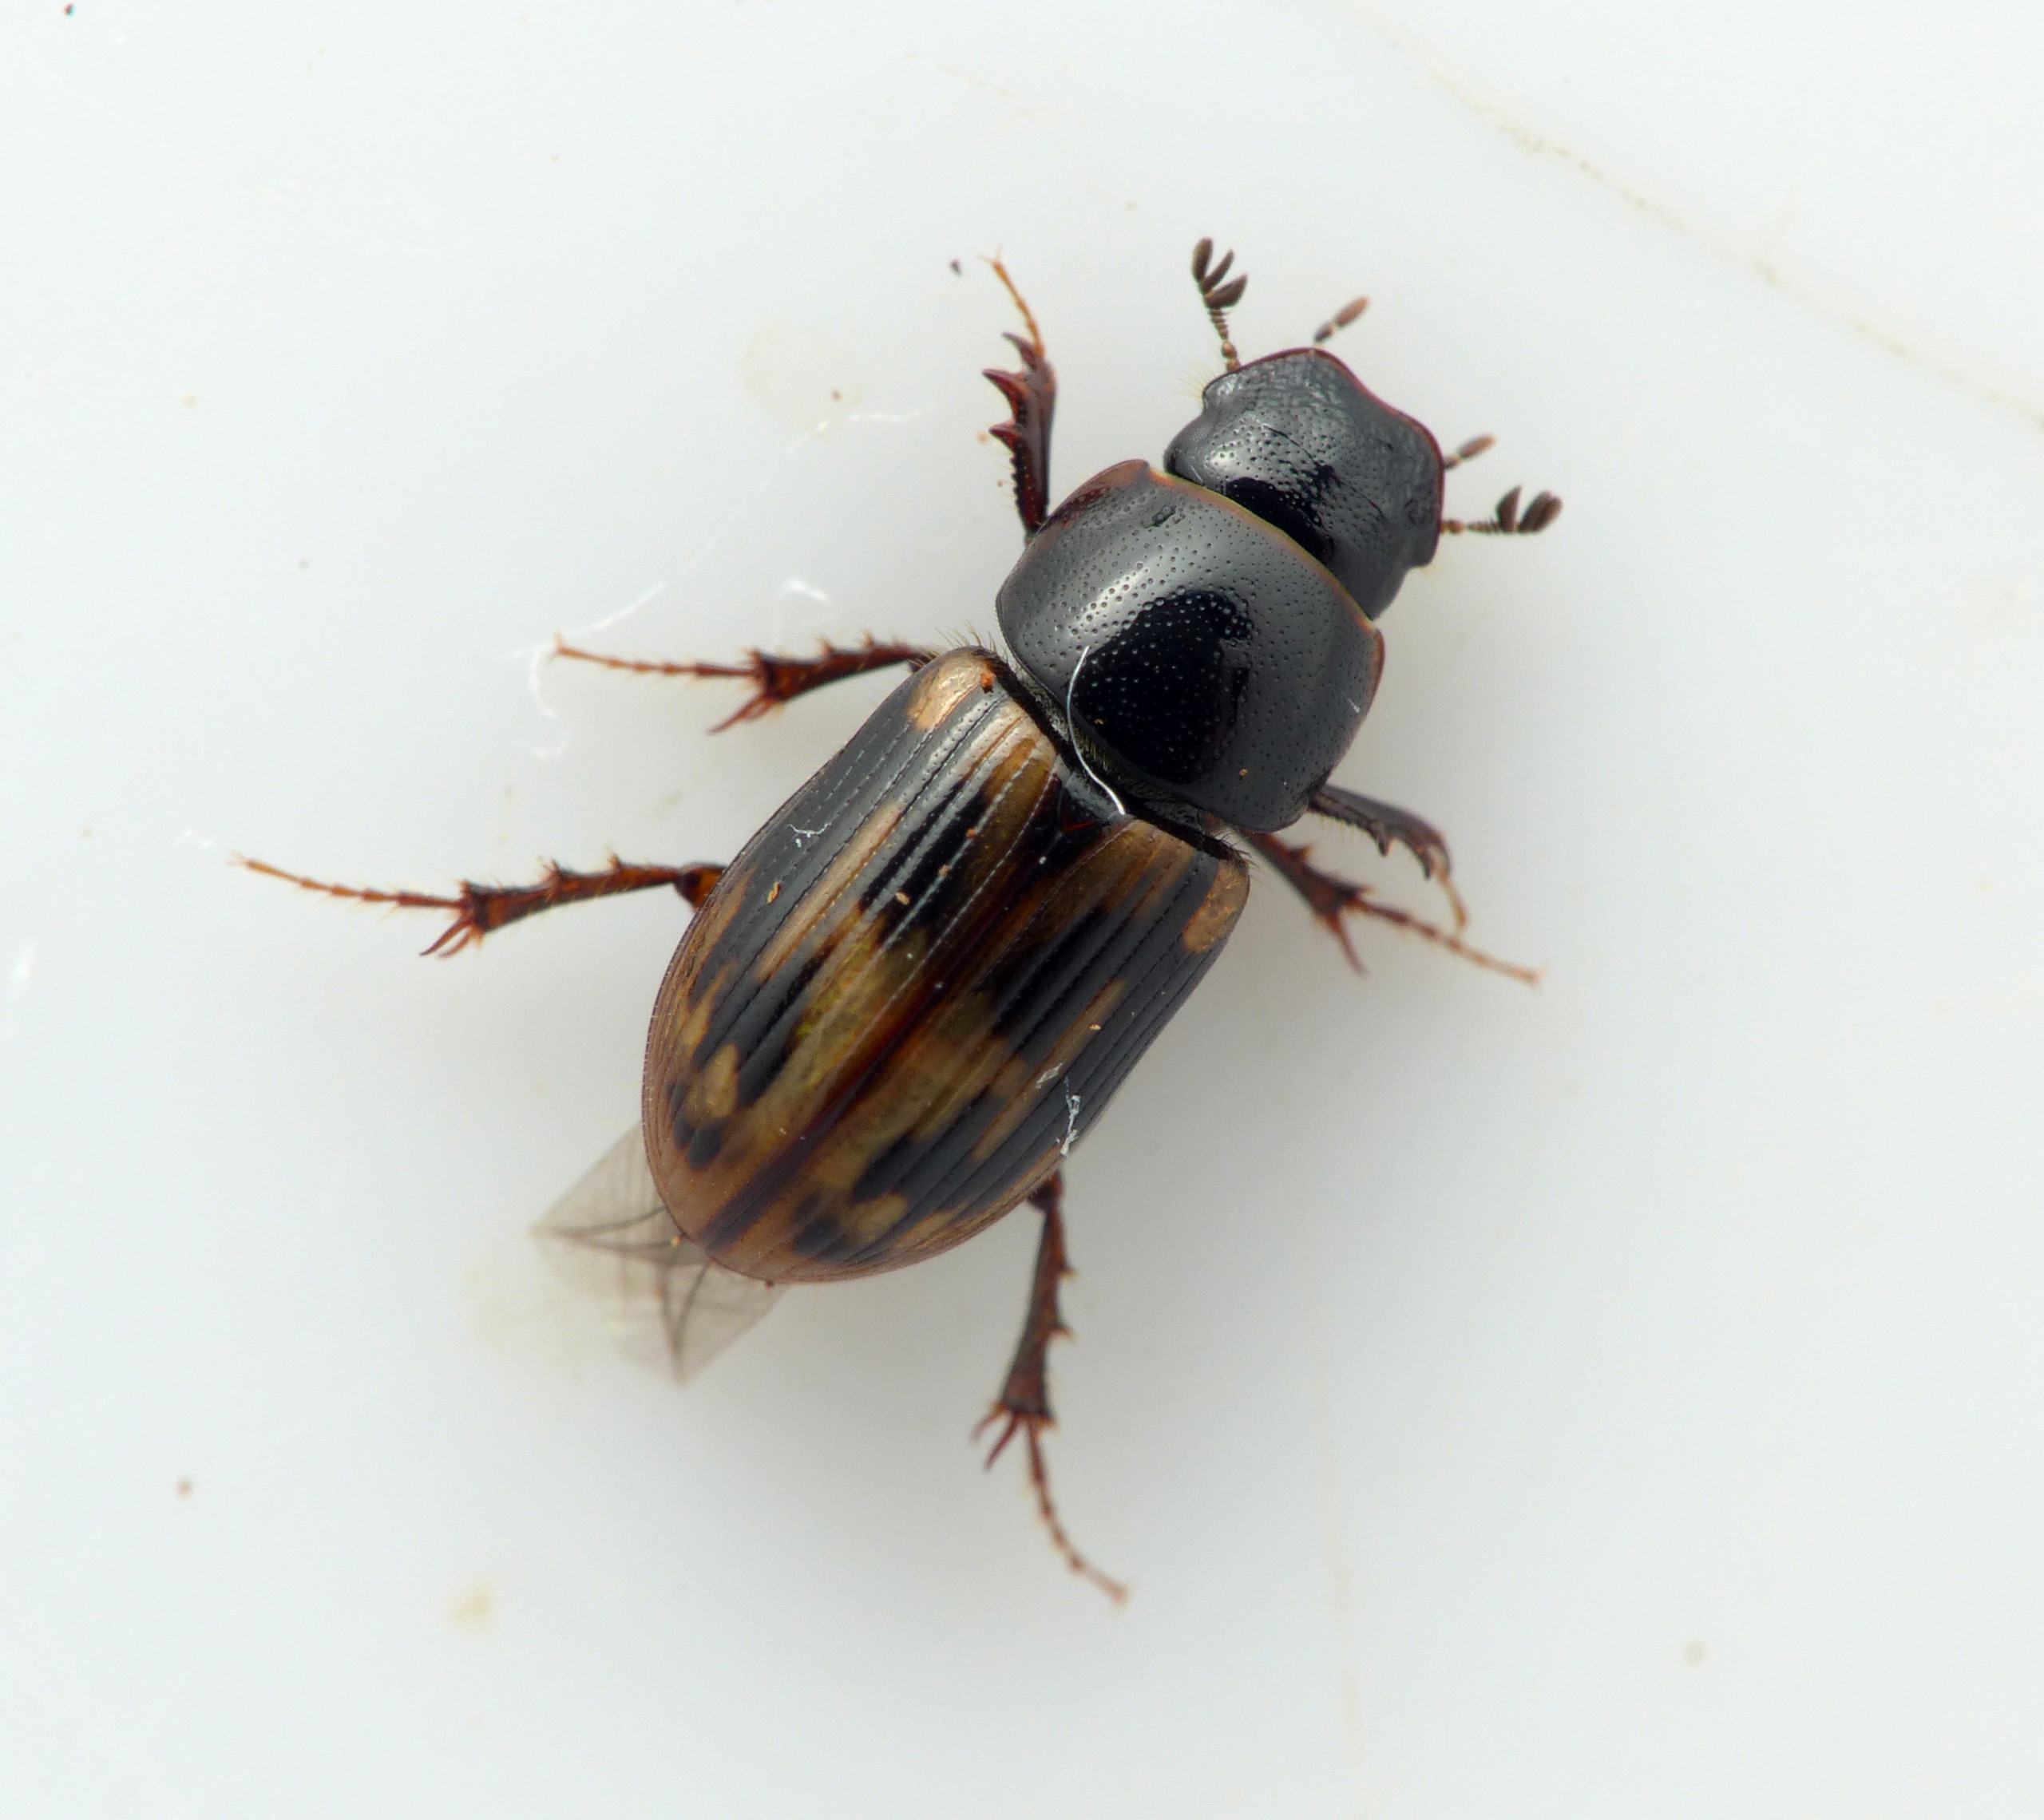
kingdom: Animalia
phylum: Arthropoda
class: Insecta
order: Coleoptera
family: Scarabaeidae
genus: Chilothorax
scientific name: Chilothorax distinctus
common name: Tidlig møgbille
